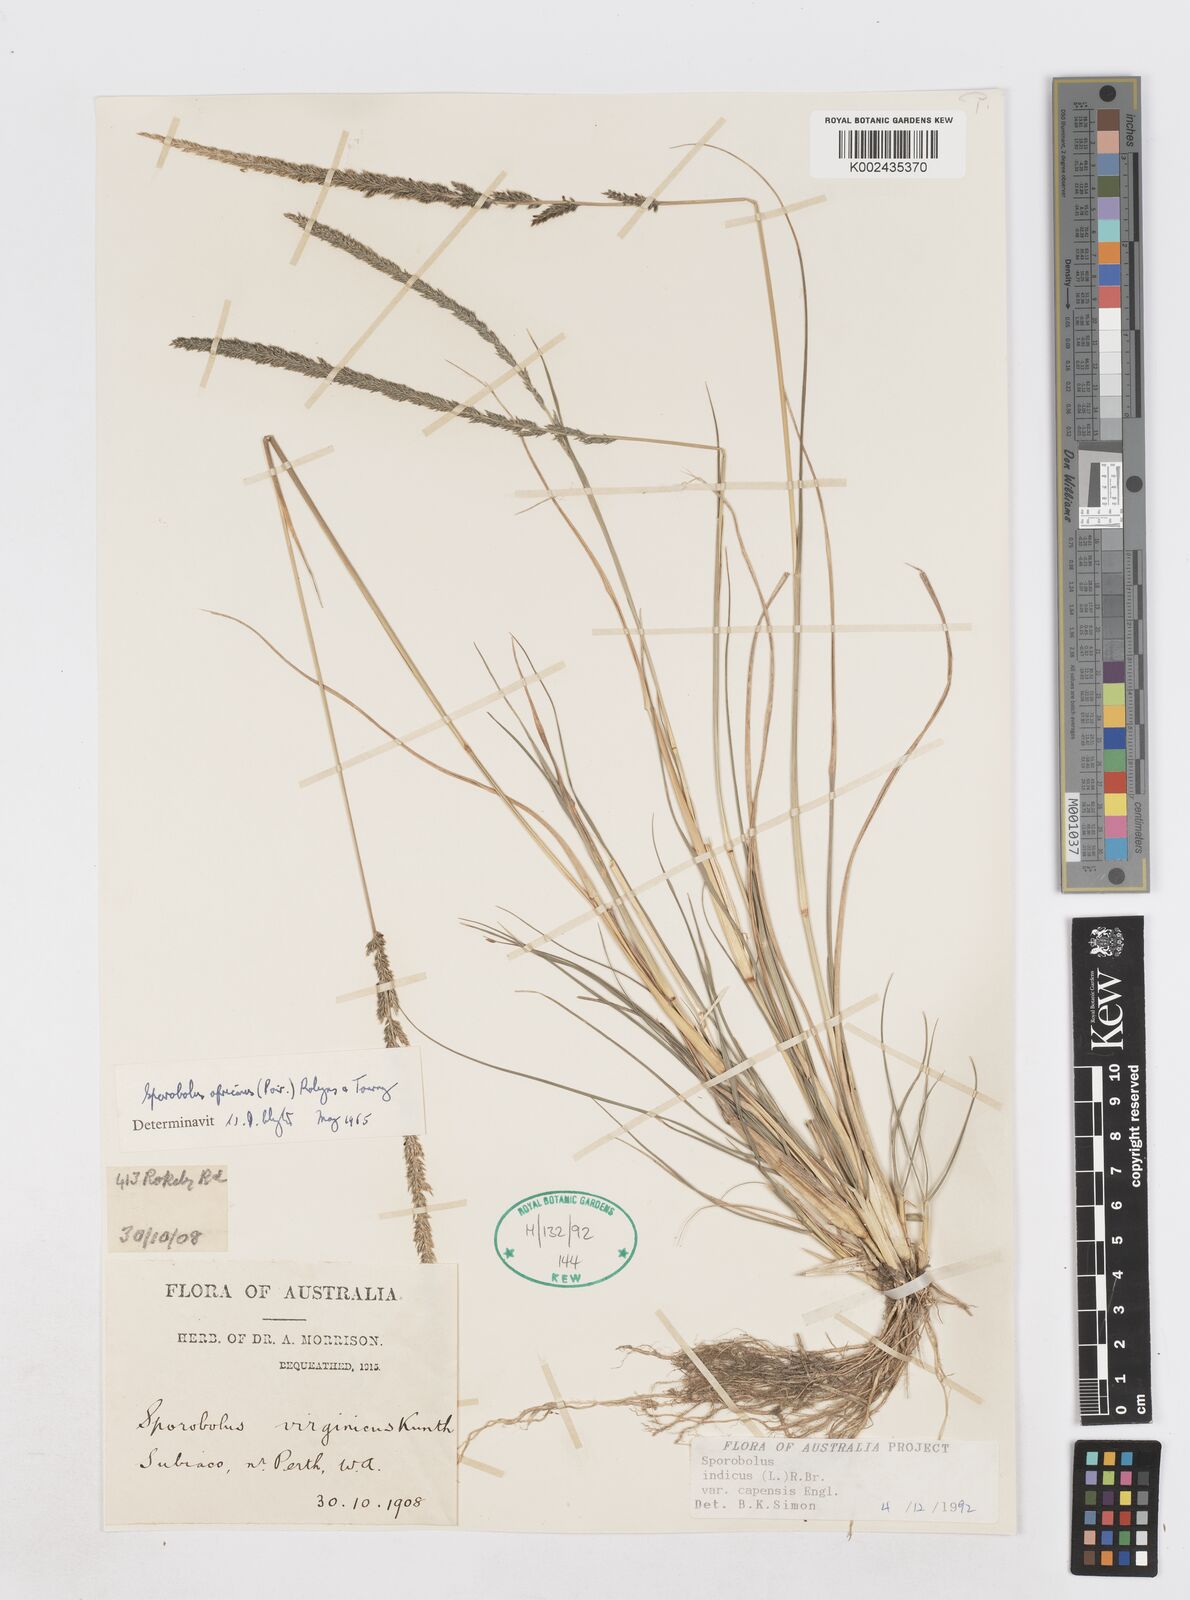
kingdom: Plantae
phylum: Tracheophyta
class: Liliopsida
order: Poales
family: Poaceae
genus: Sporobolus
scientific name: Sporobolus africanus
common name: African dropseed
